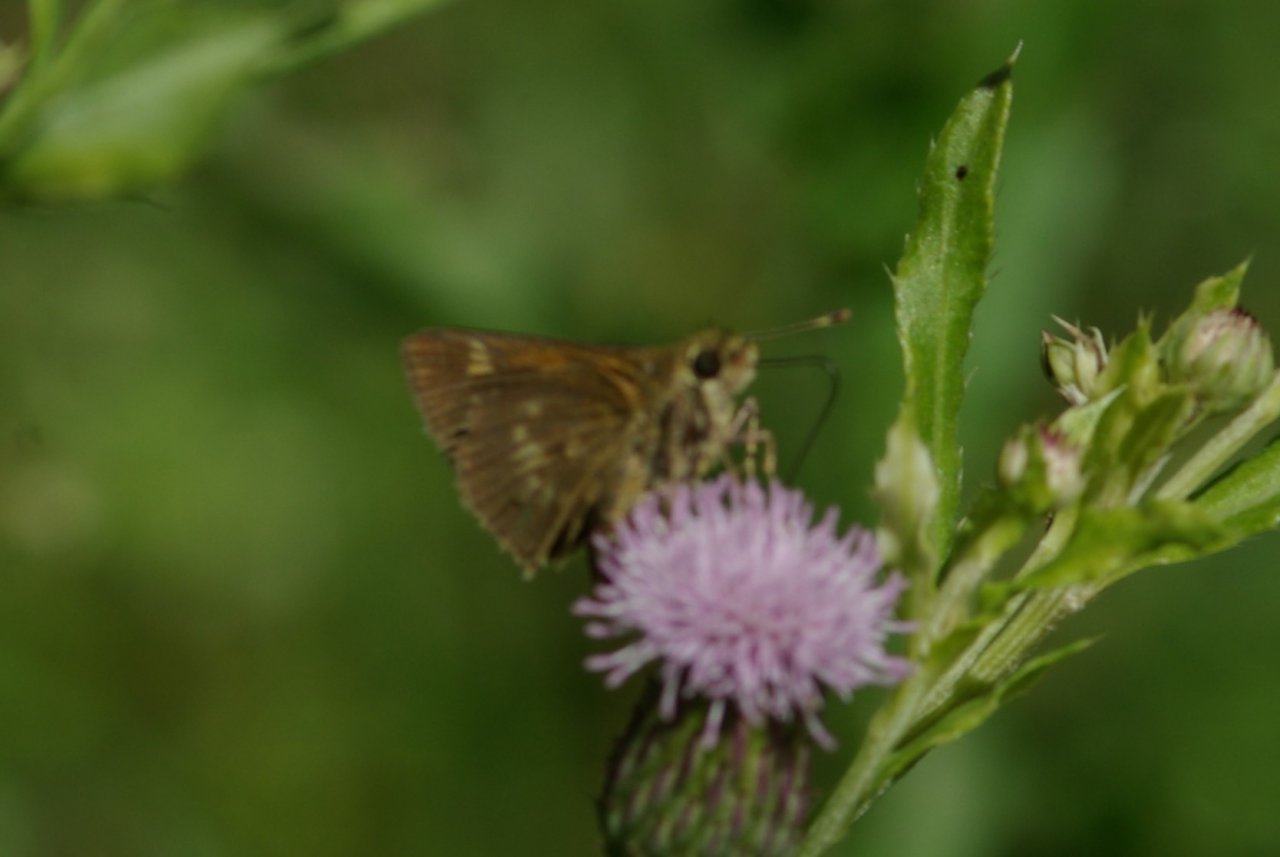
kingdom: Animalia
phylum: Arthropoda
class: Insecta
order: Lepidoptera
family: Hesperiidae
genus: Polites
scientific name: Polites egeremet
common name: Northern Broken-Dash
